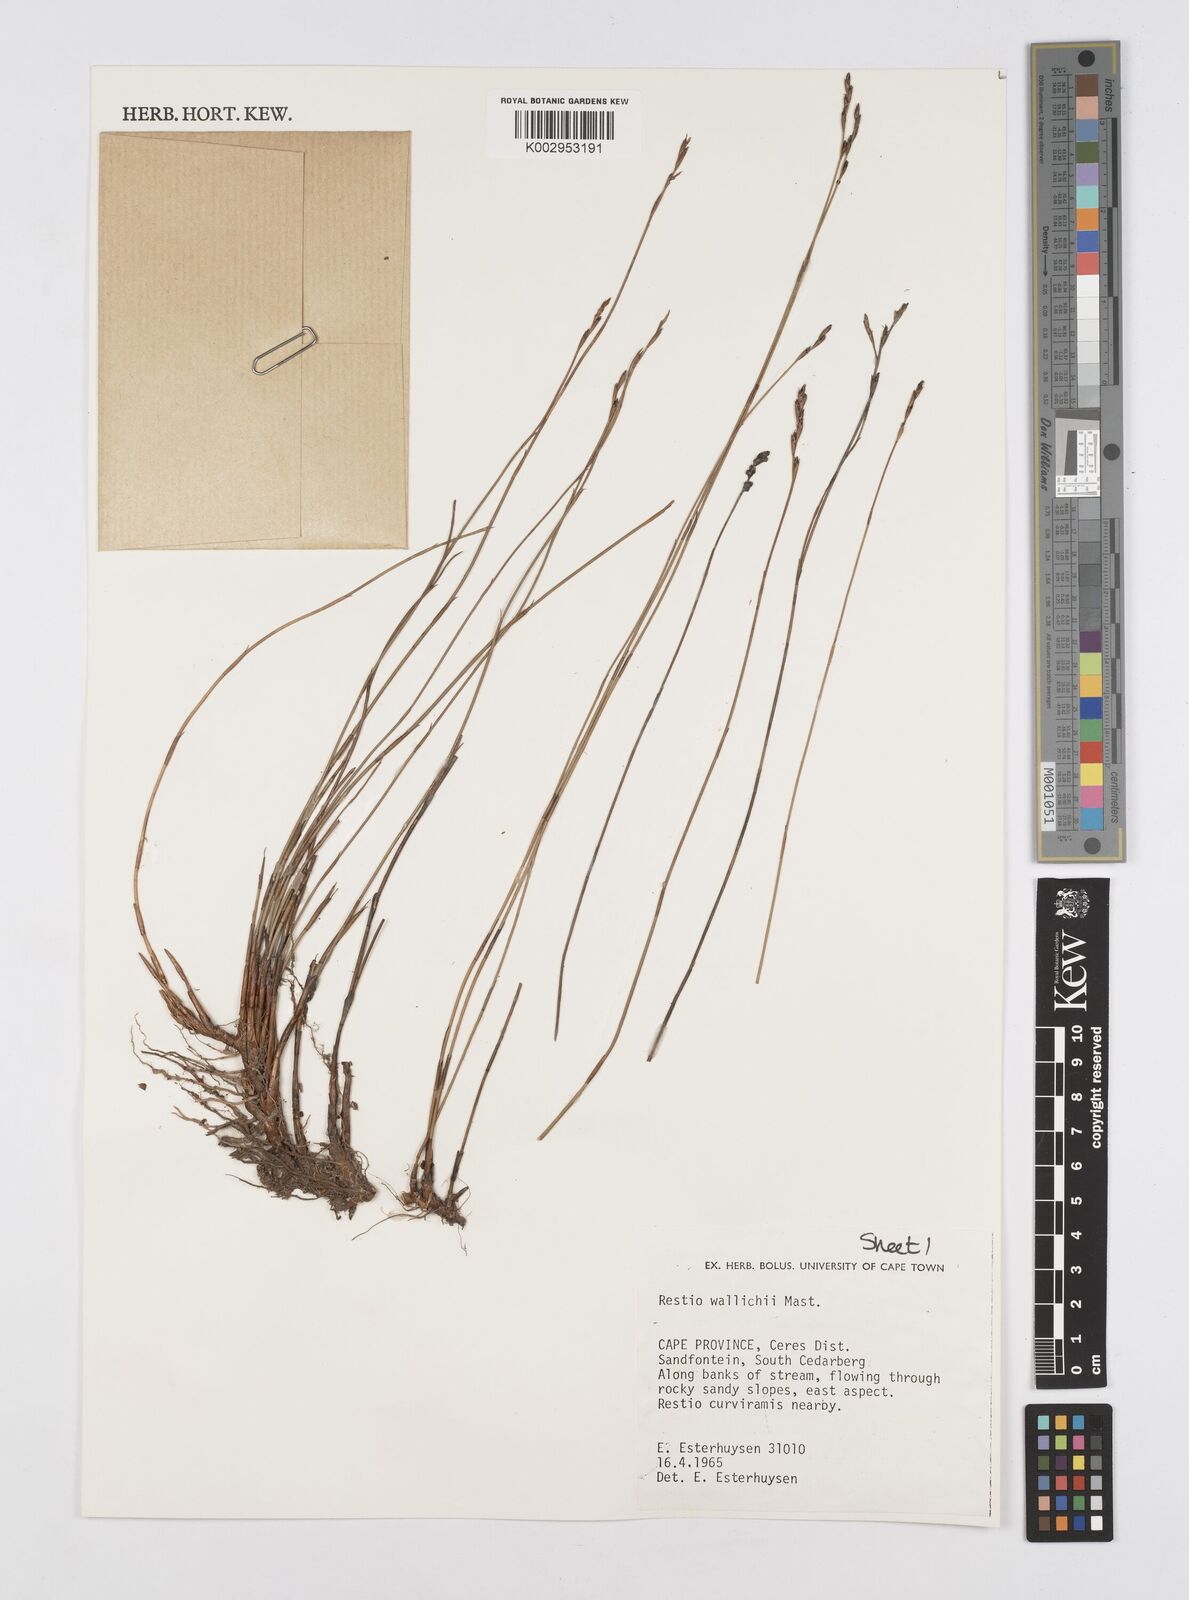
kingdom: Plantae
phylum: Tracheophyta
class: Liliopsida
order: Poales
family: Restionaceae
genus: Restio
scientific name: Restio wallichii
